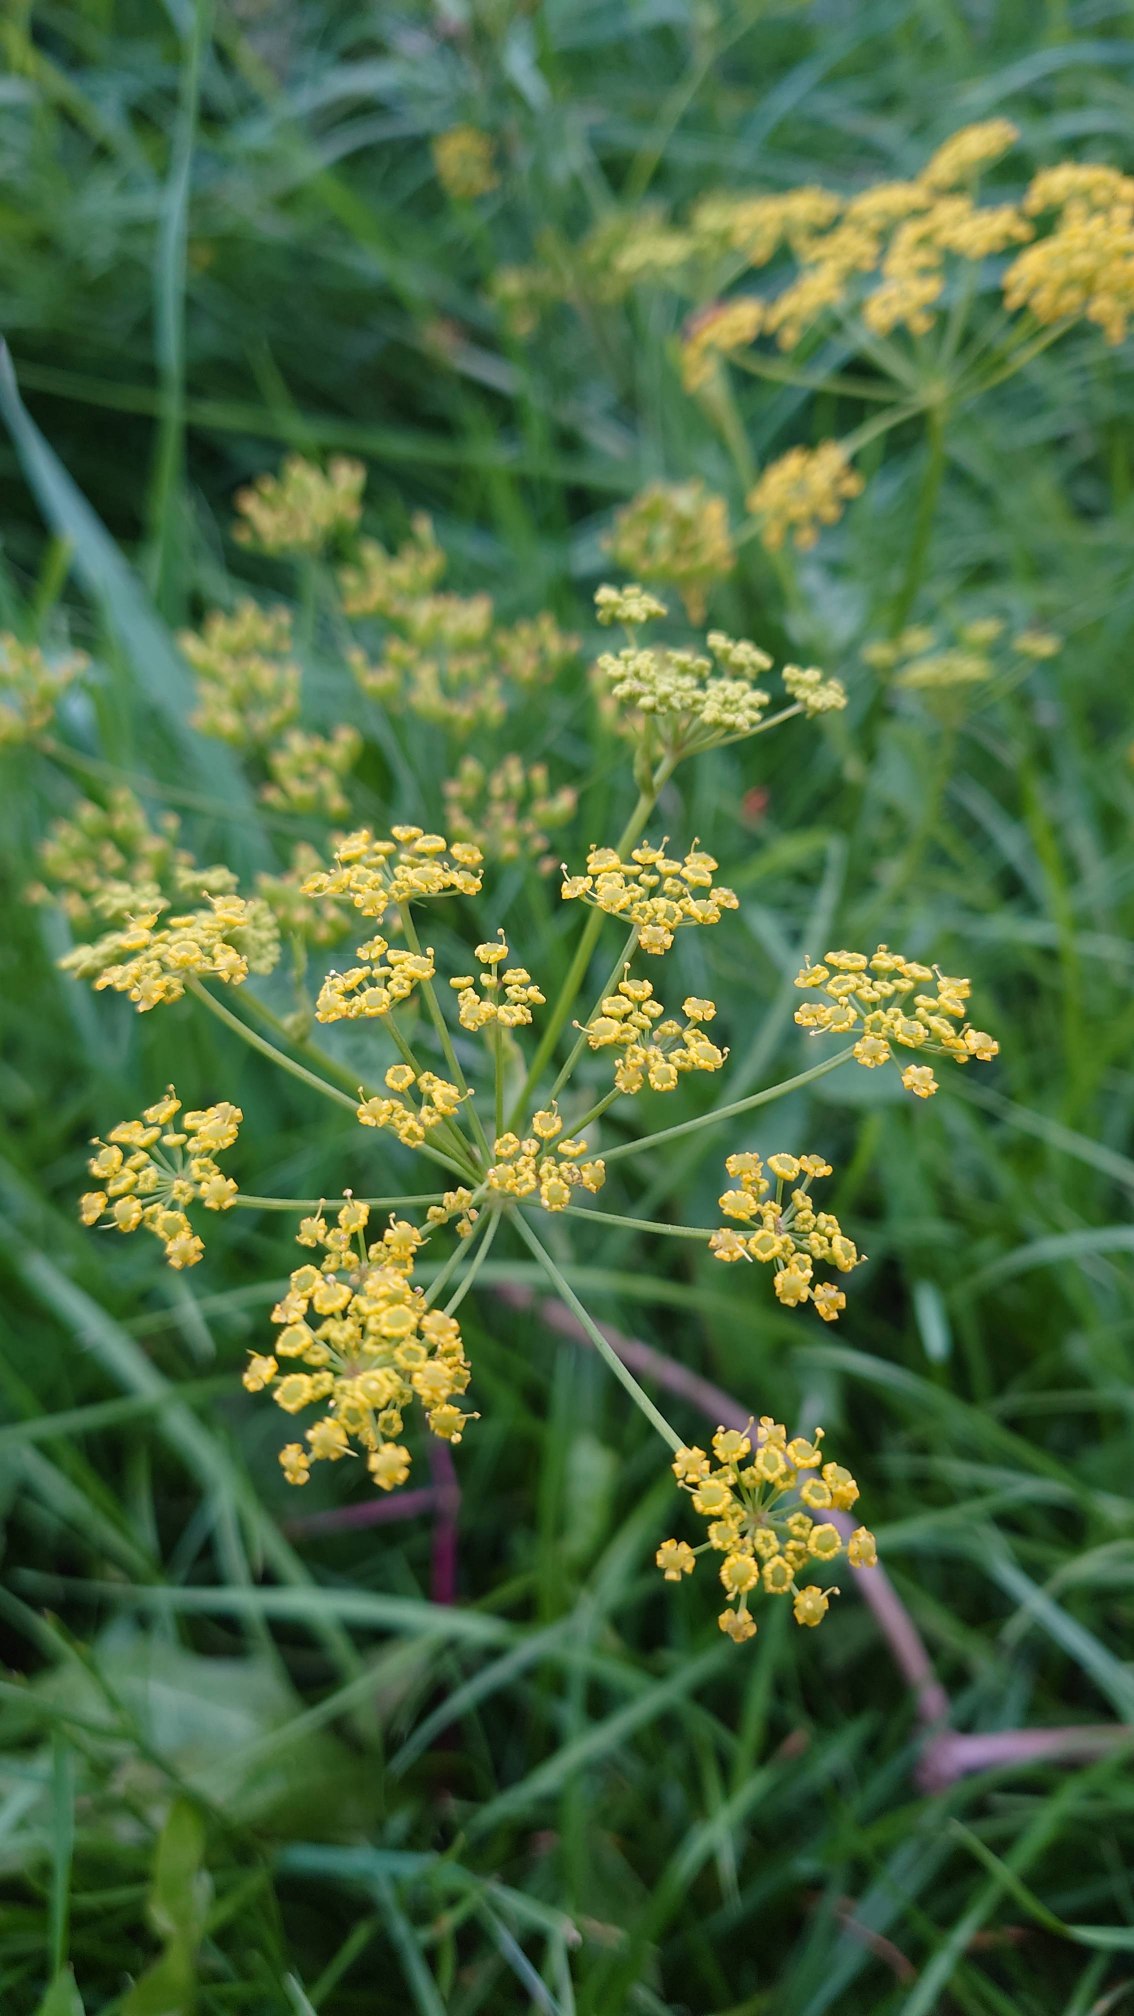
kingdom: Plantae
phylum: Tracheophyta
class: Magnoliopsida
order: Apiales
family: Apiaceae
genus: Pastinaca
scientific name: Pastinaca sativa
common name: Have-pastinak
